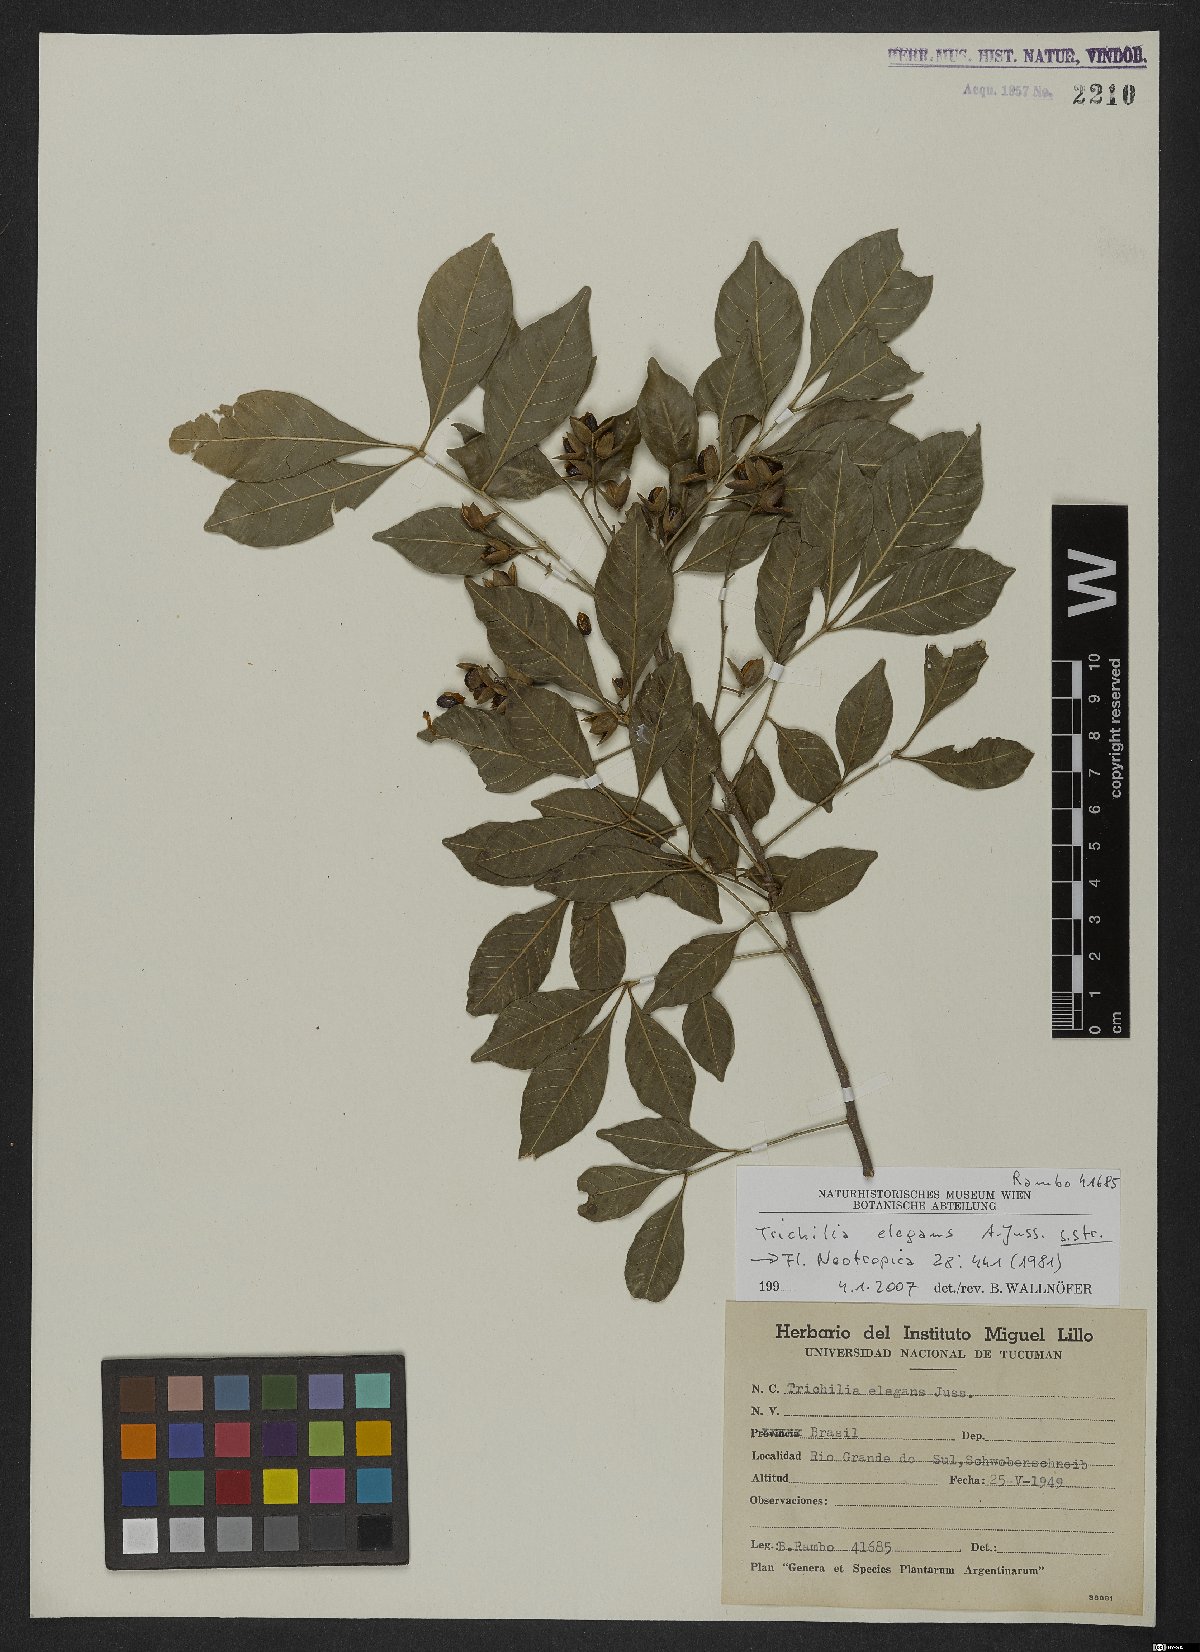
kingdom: Plantae
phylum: Tracheophyta
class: Magnoliopsida
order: Sapindales
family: Meliaceae
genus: Trichilia
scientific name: Trichilia elegans
